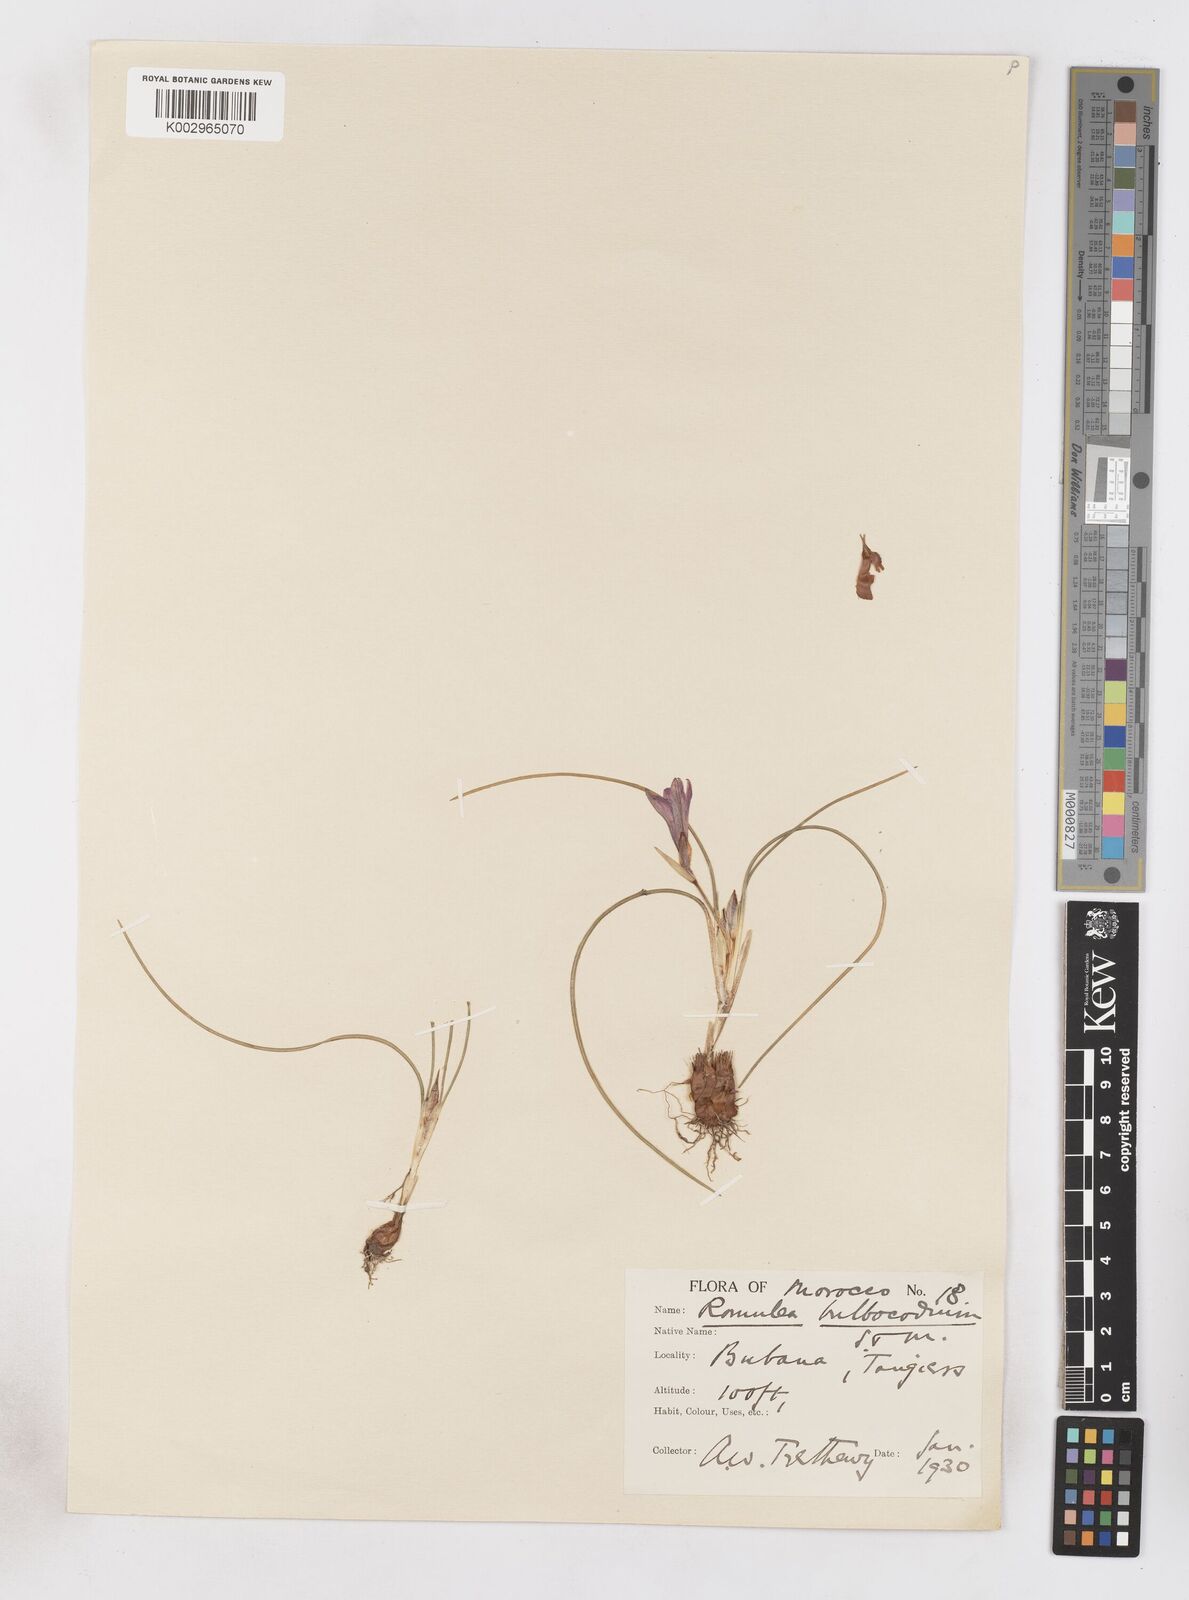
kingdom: Plantae
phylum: Tracheophyta
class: Liliopsida
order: Asparagales
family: Iridaceae
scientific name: Iridaceae
